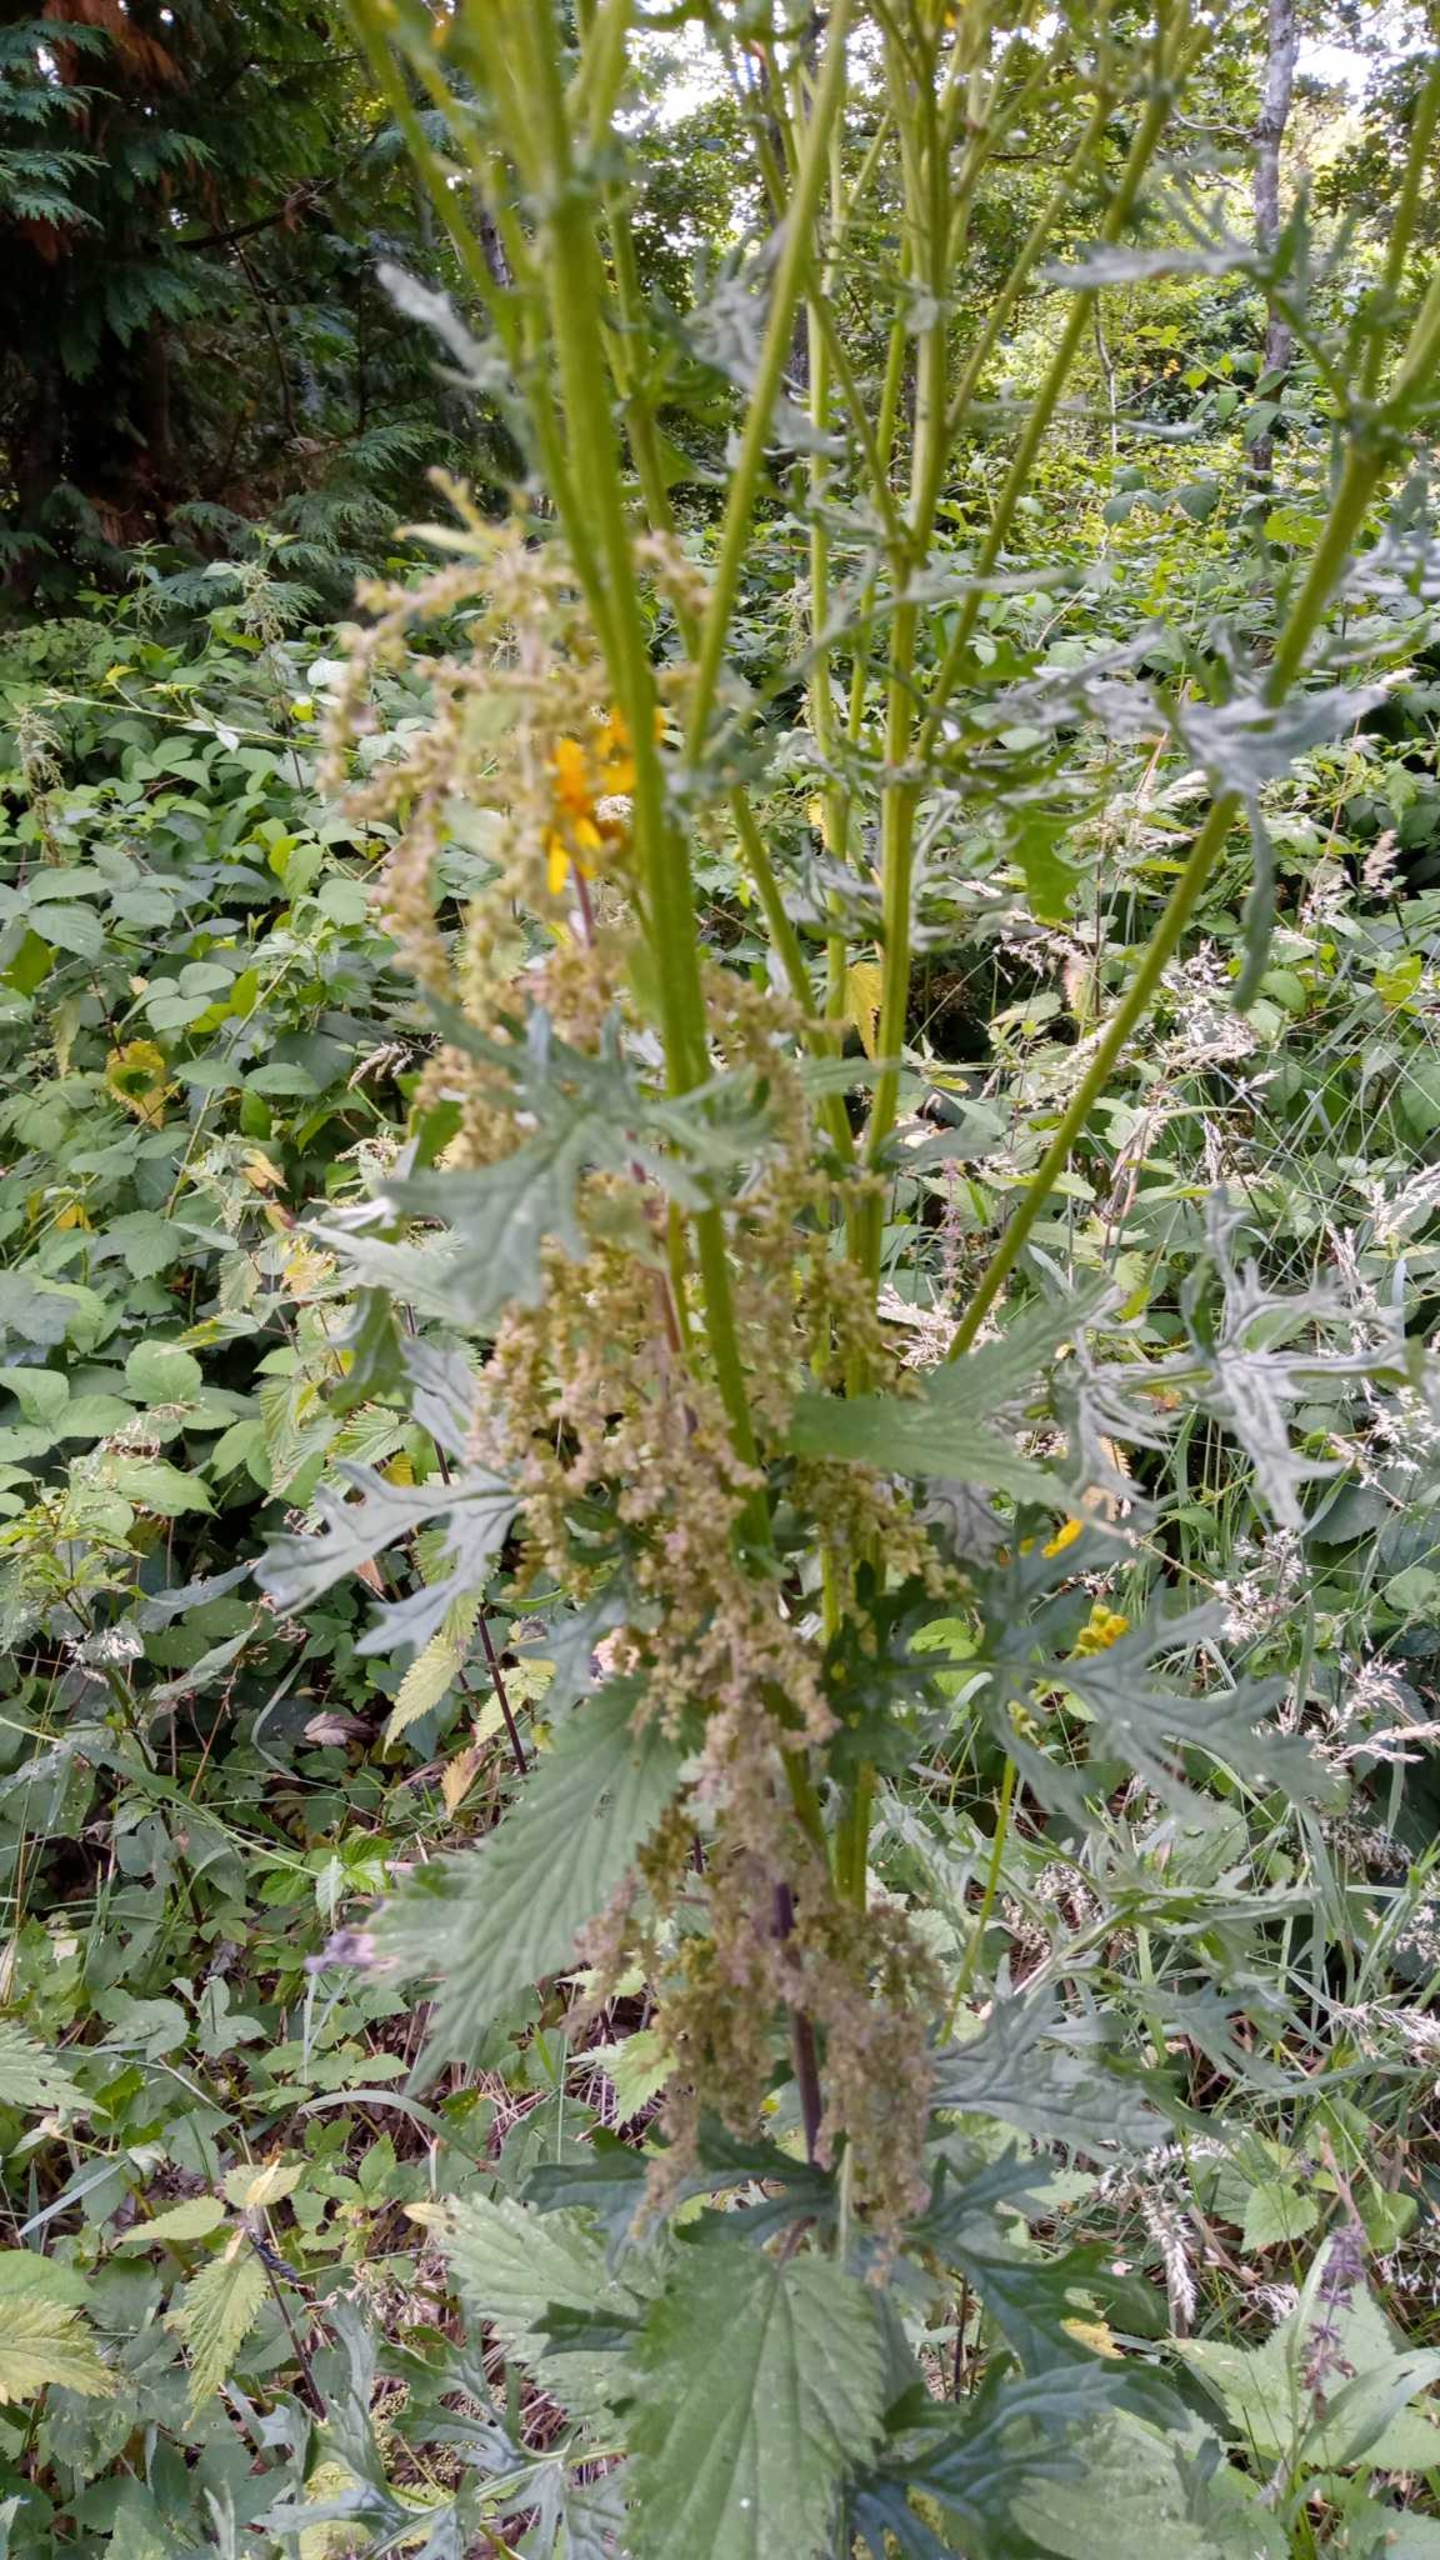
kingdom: Plantae
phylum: Tracheophyta
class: Magnoliopsida
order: Asterales
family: Asteraceae
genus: Jacobaea
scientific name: Jacobaea vulgaris
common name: Eng-brandbæger
